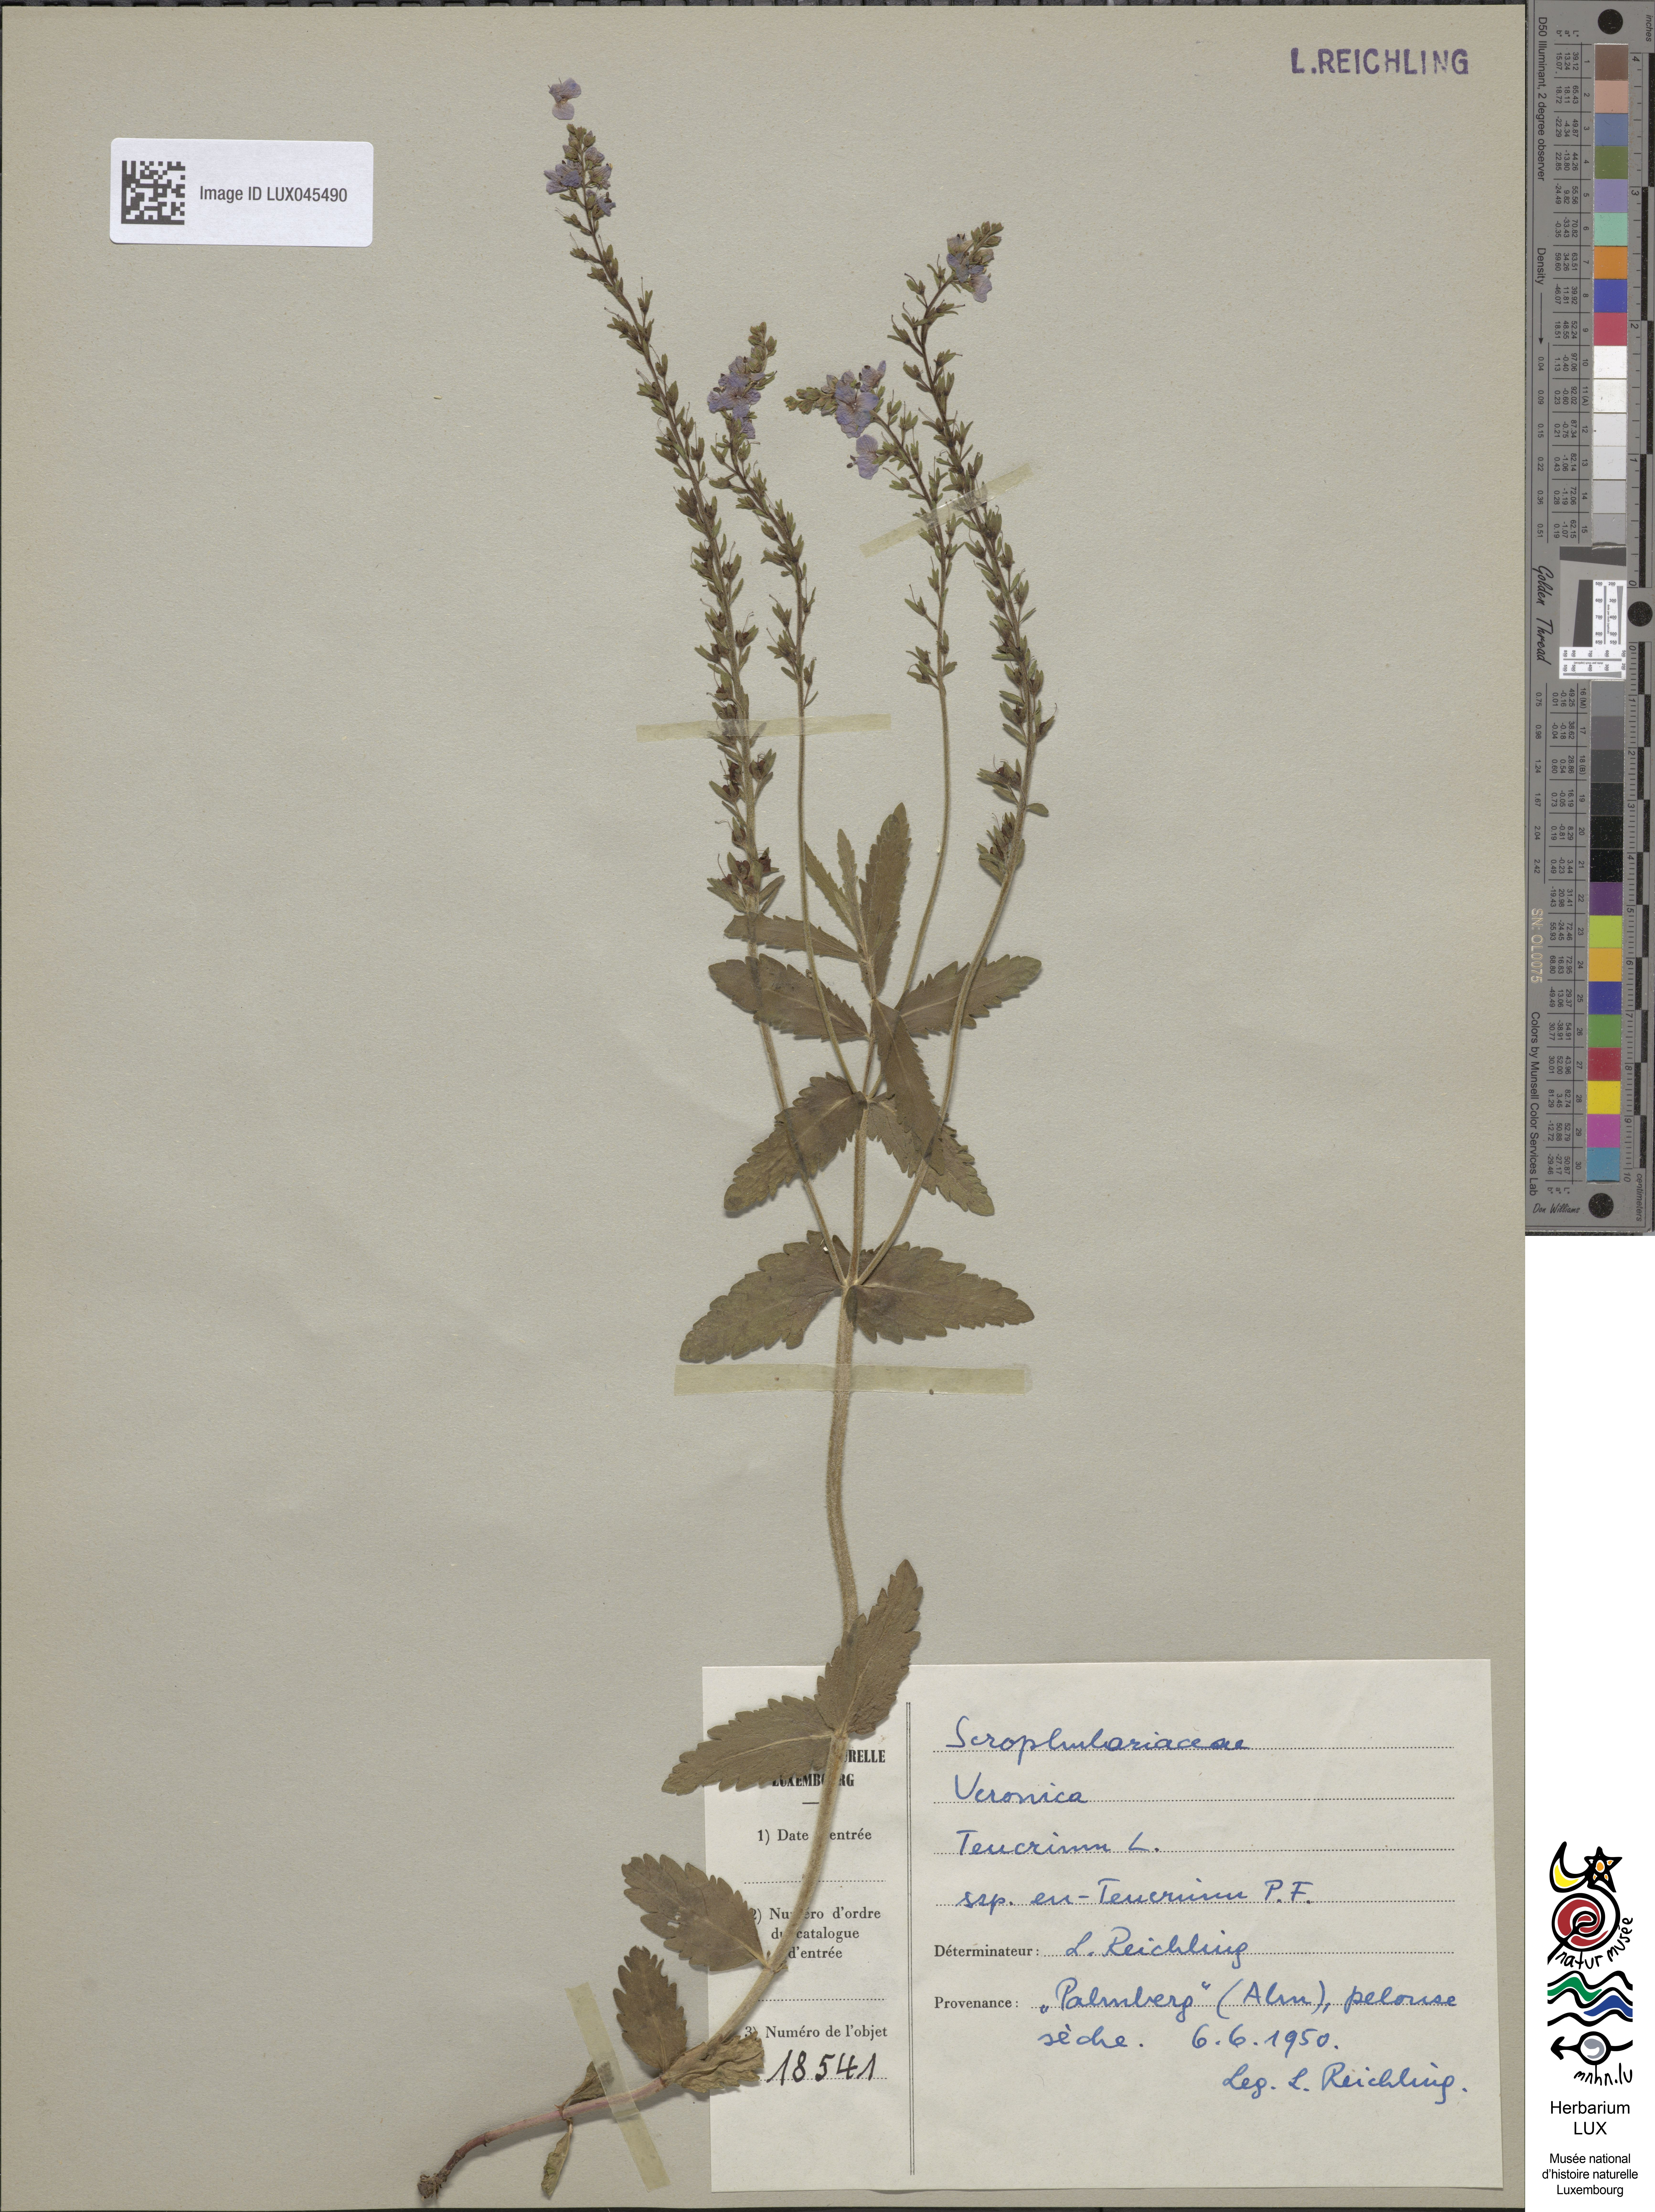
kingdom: Plantae
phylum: Tracheophyta
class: Magnoliopsida
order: Lamiales
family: Plantaginaceae
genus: Veronica
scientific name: Veronica teucrium
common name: Large speedwell
